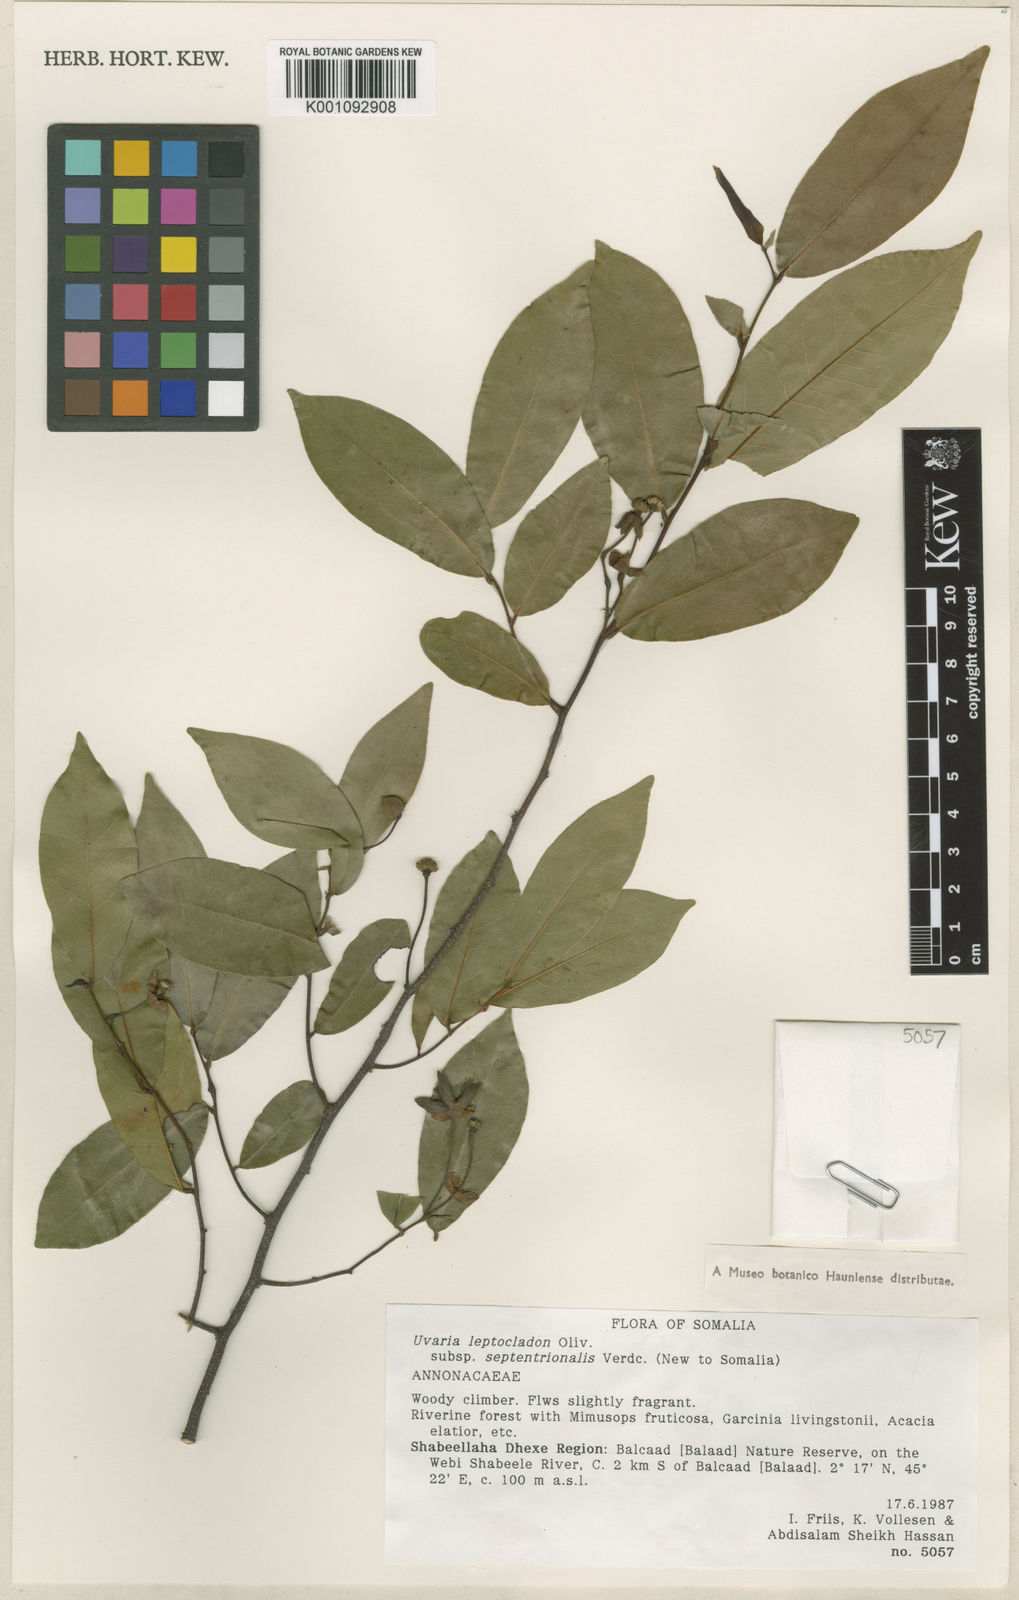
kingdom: Plantae
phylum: Tracheophyta
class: Magnoliopsida
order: Magnoliales
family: Annonaceae
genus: Uvaria
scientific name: Uvaria leptocladon
